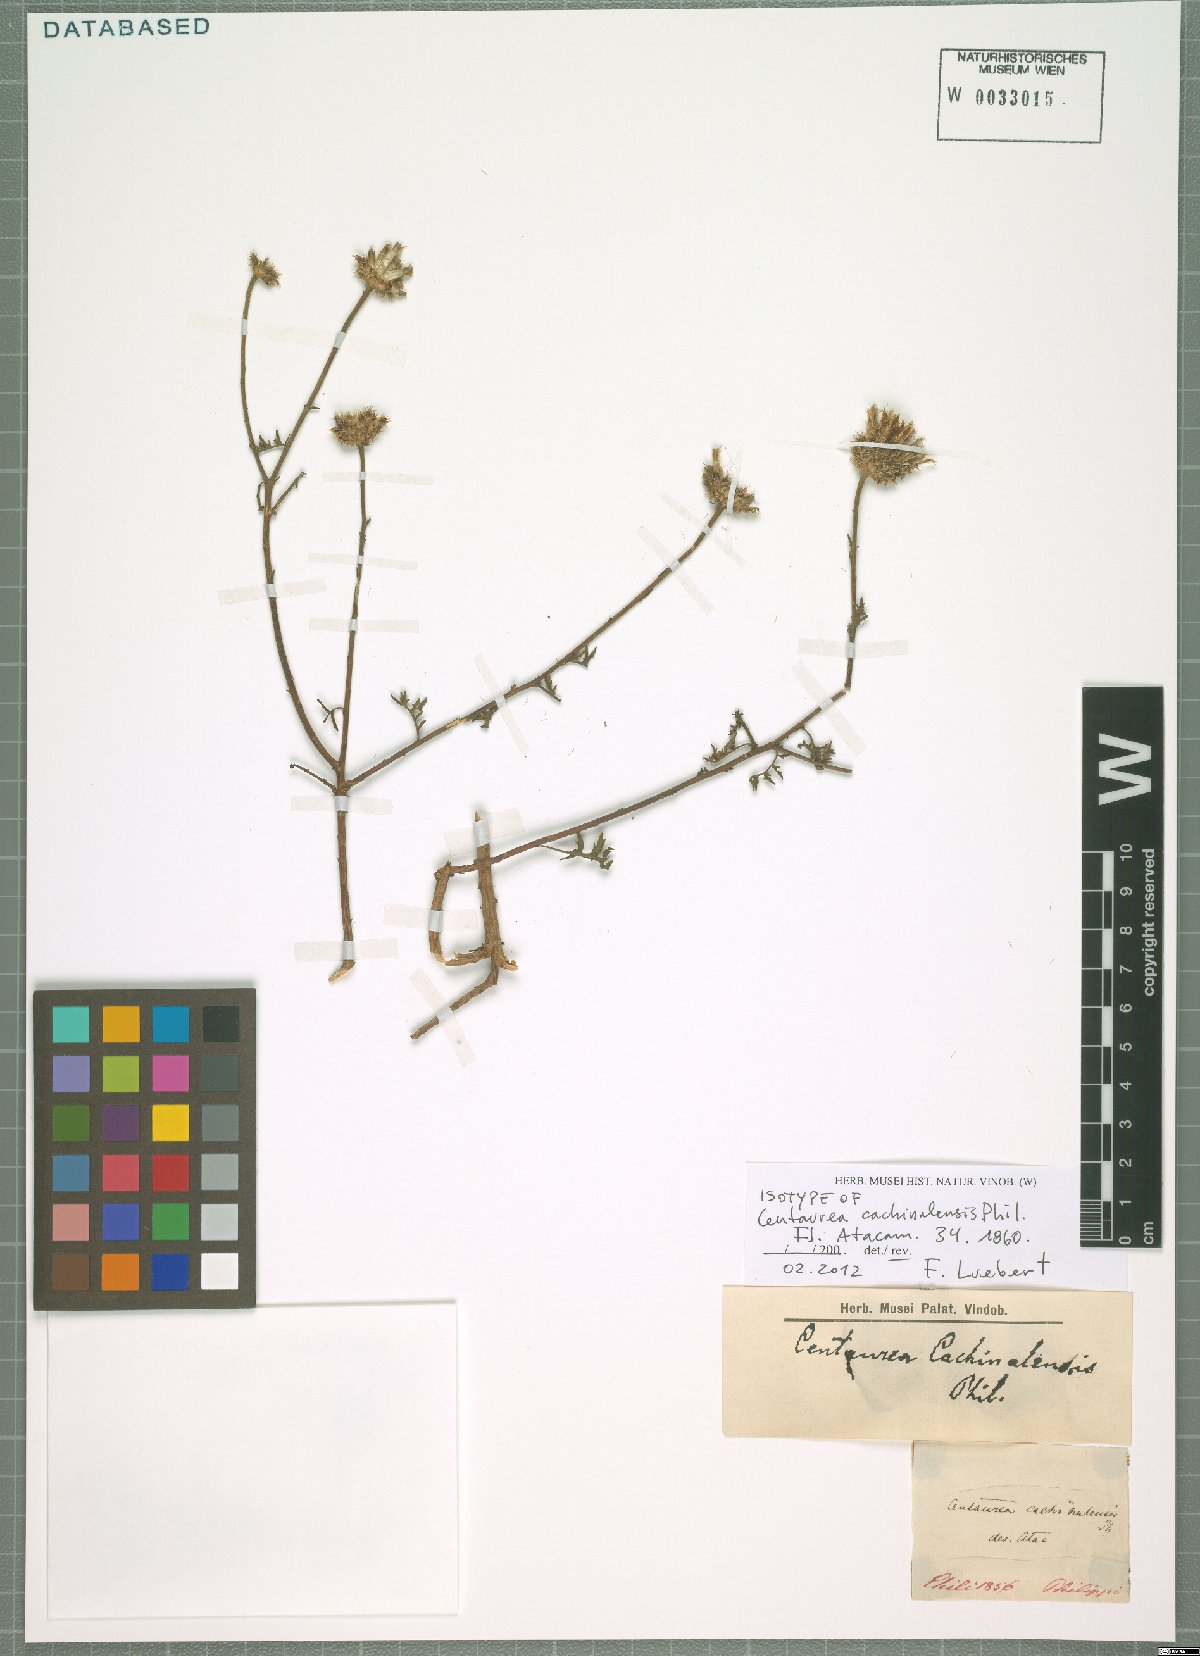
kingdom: Plantae
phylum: Tracheophyta
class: Magnoliopsida
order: Asterales
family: Asteraceae
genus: Plectocephalus
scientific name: Plectocephalus cachinalensis
